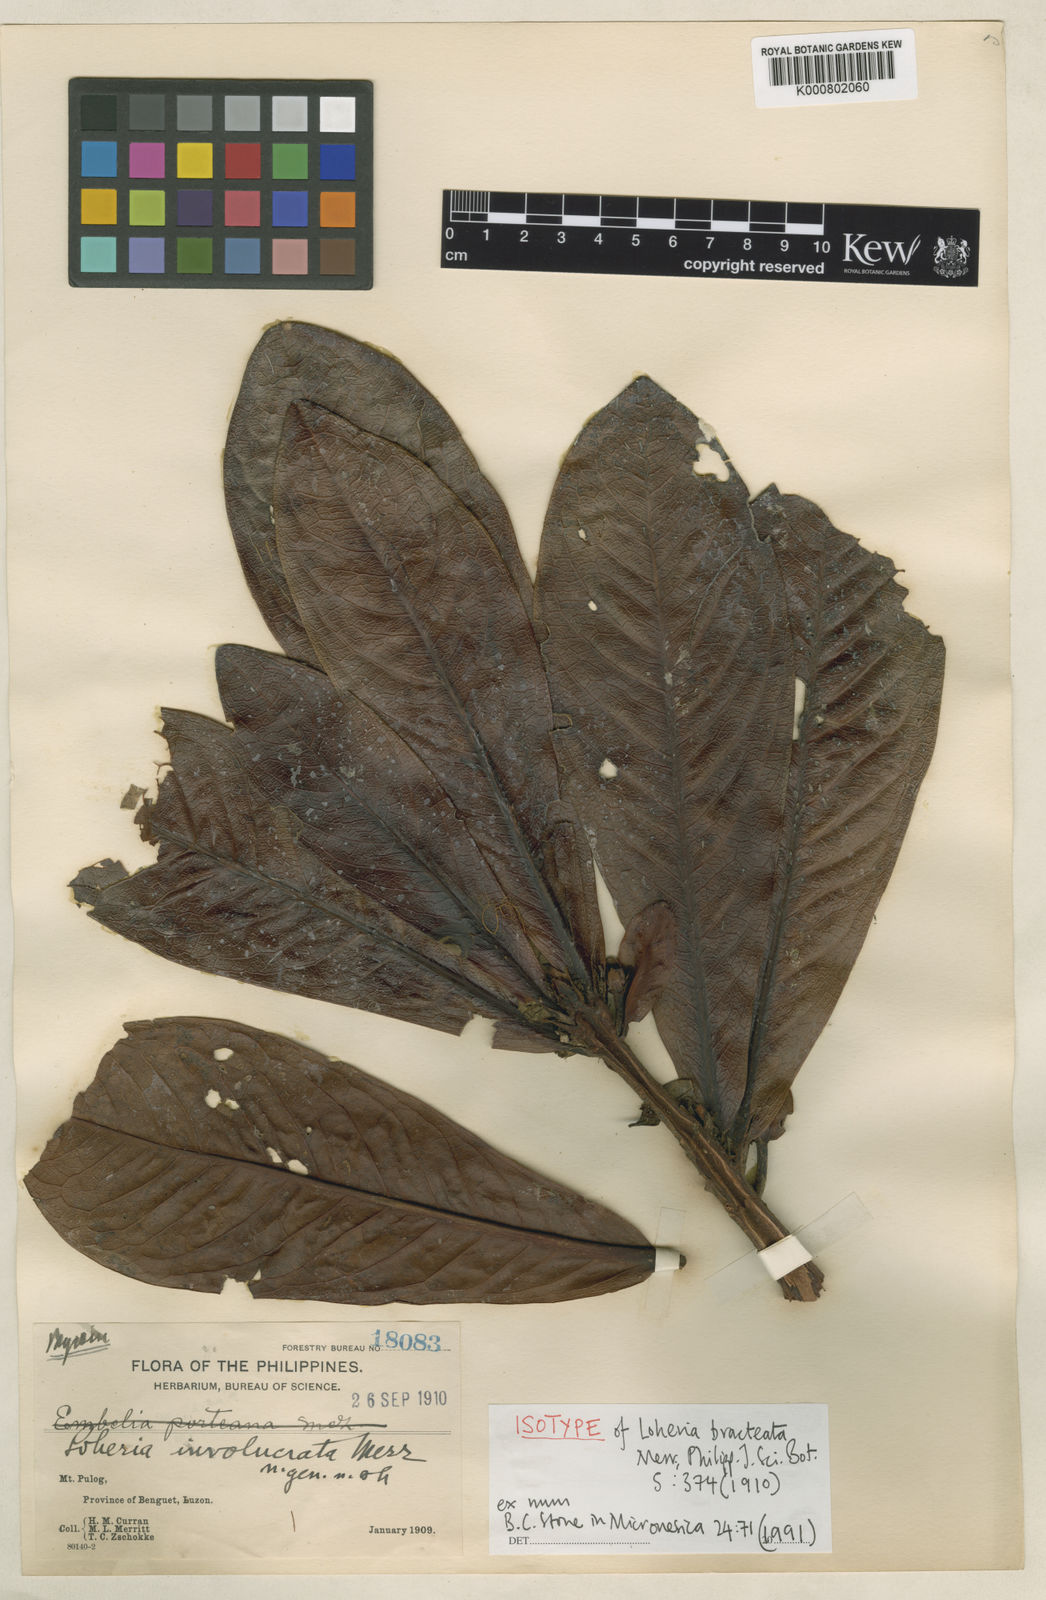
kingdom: Plantae
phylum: Tracheophyta
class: Magnoliopsida
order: Ericales
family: Primulaceae
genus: Loheria
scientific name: Loheria bracteata
